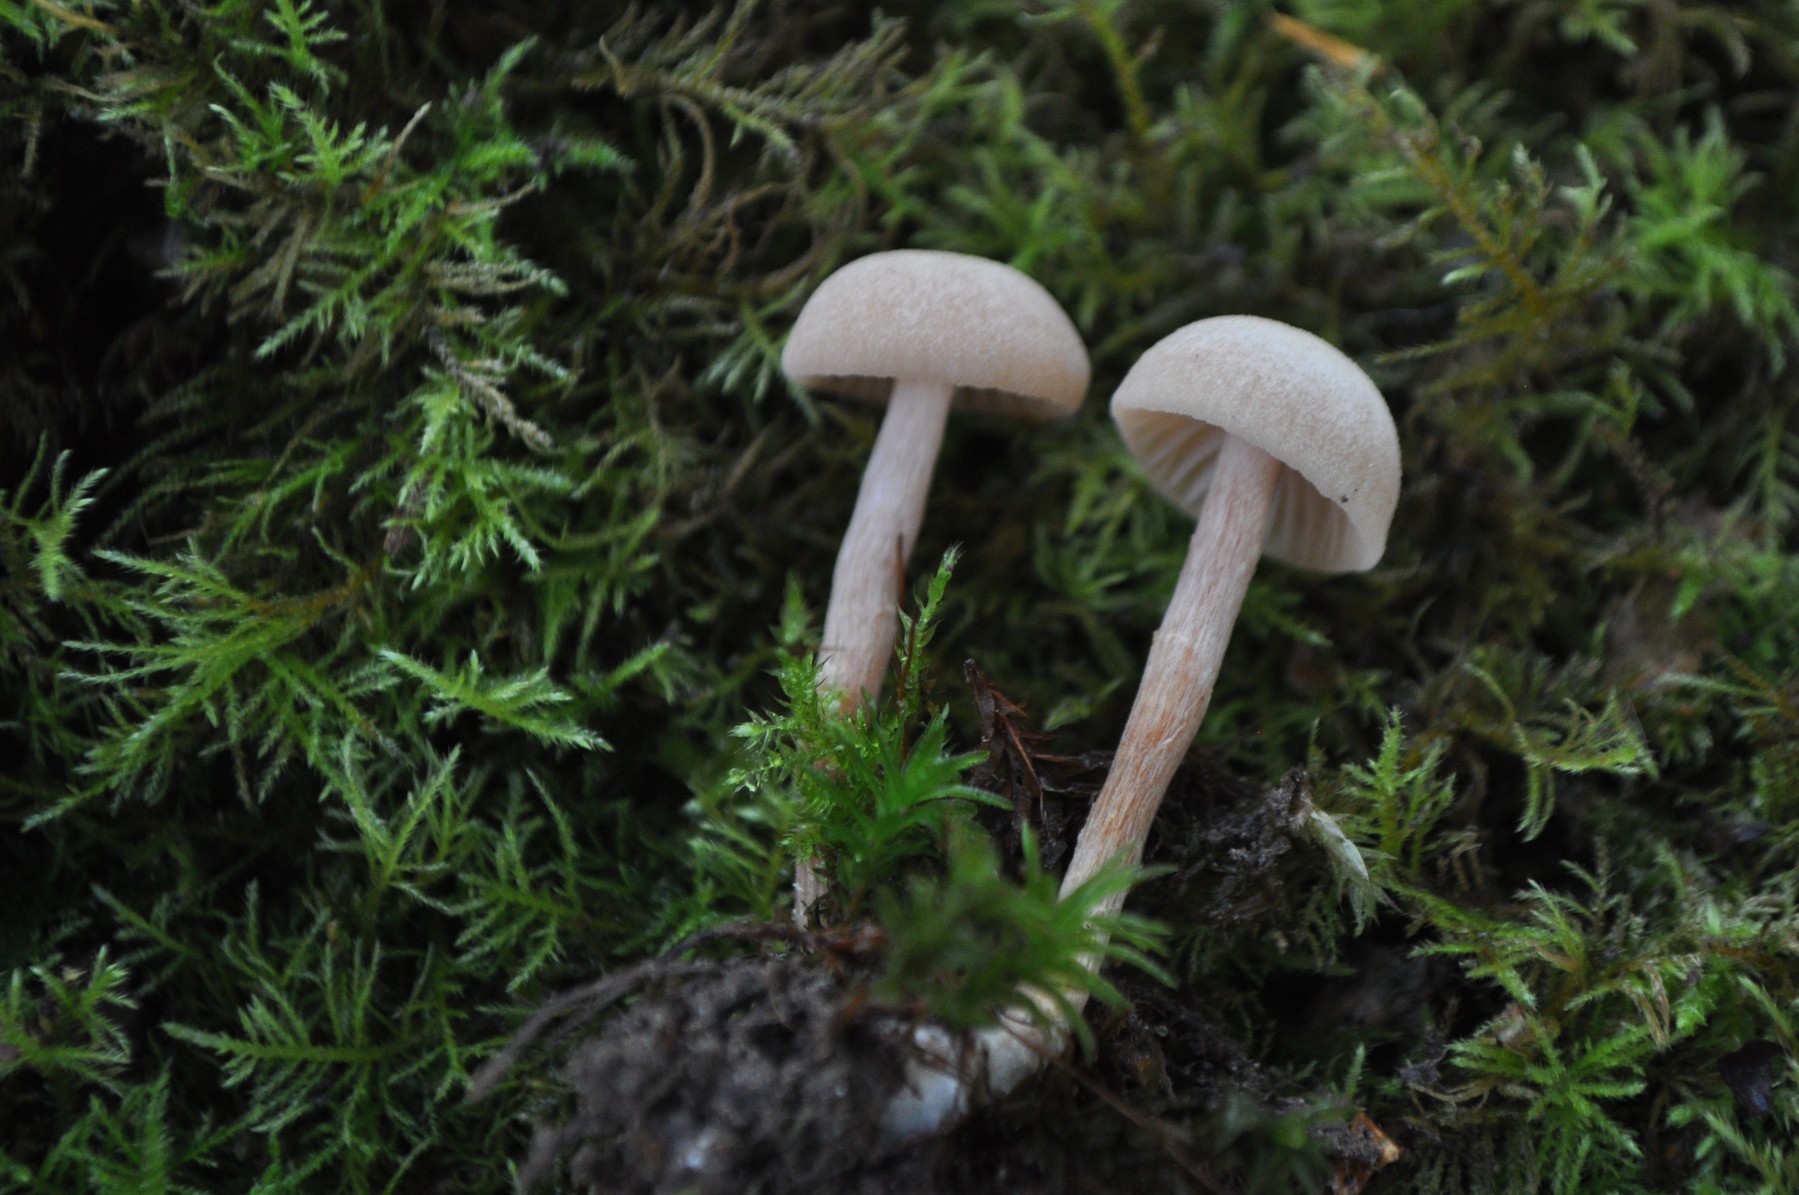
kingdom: Fungi
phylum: Basidiomycota
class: Agaricomycetes
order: Agaricales
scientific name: Agaricales
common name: champignonordenen
